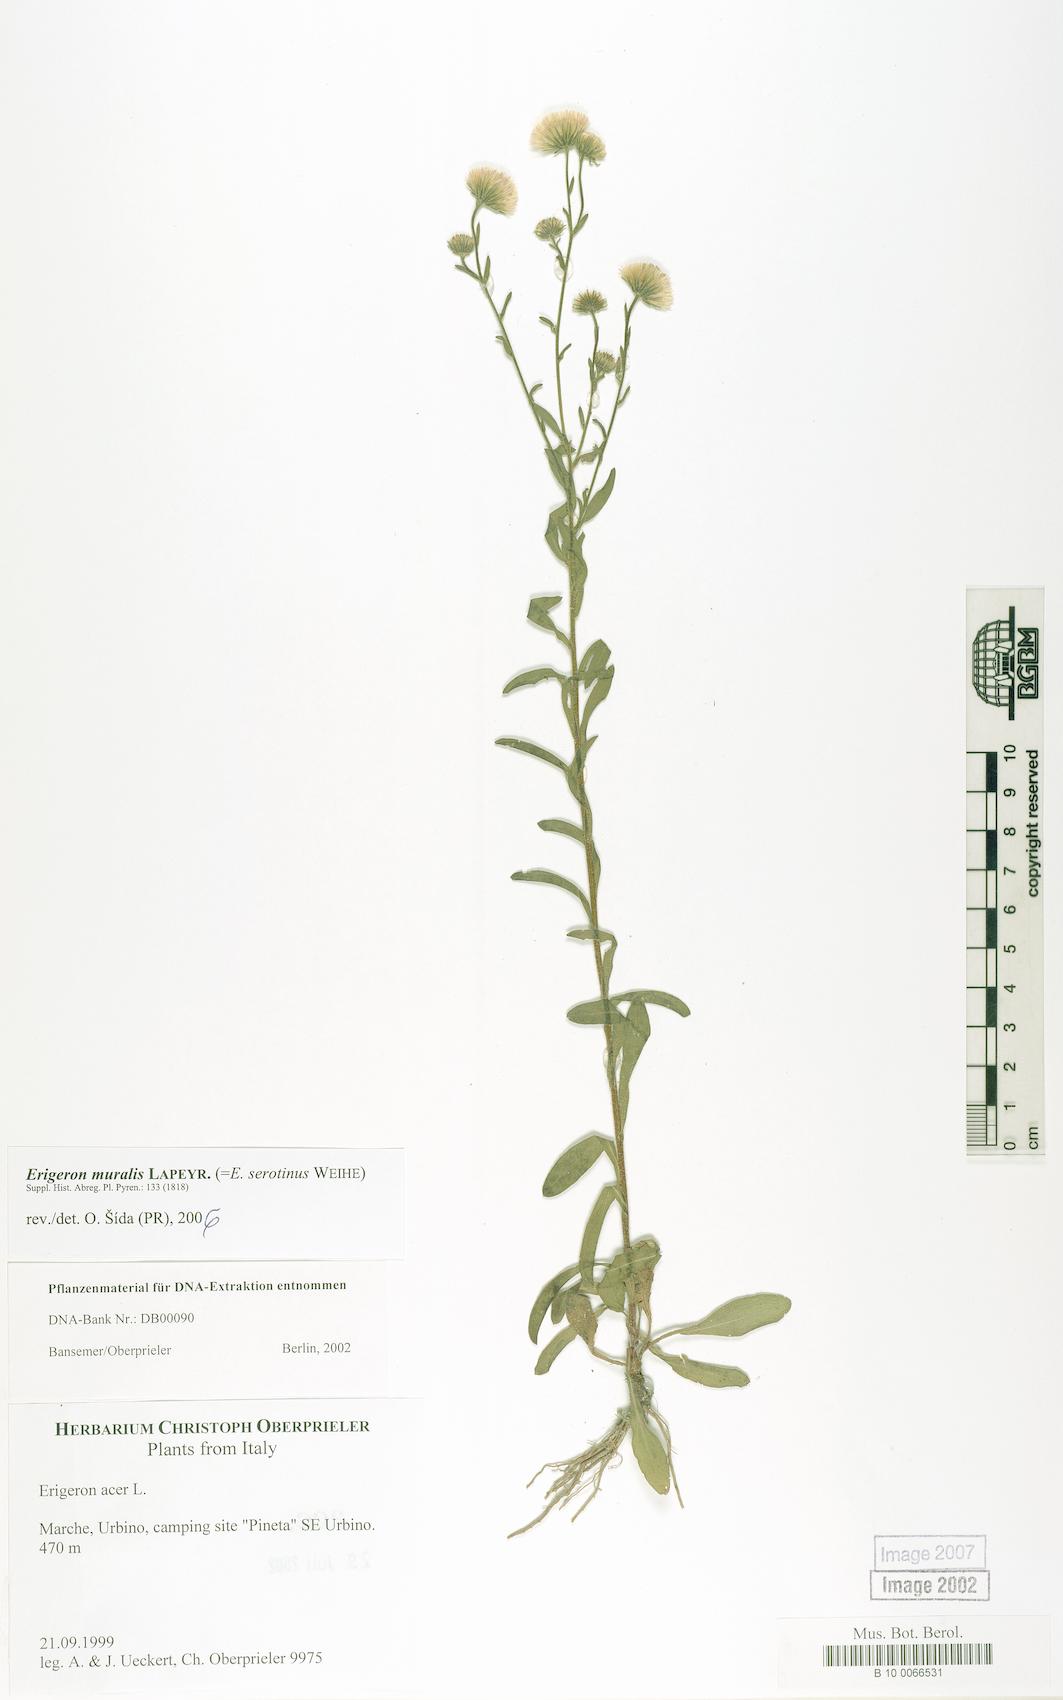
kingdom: Plantae
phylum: Tracheophyta
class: Magnoliopsida
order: Asterales
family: Asteraceae
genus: Erigeron
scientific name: Erigeron acer
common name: Blue fleabane
